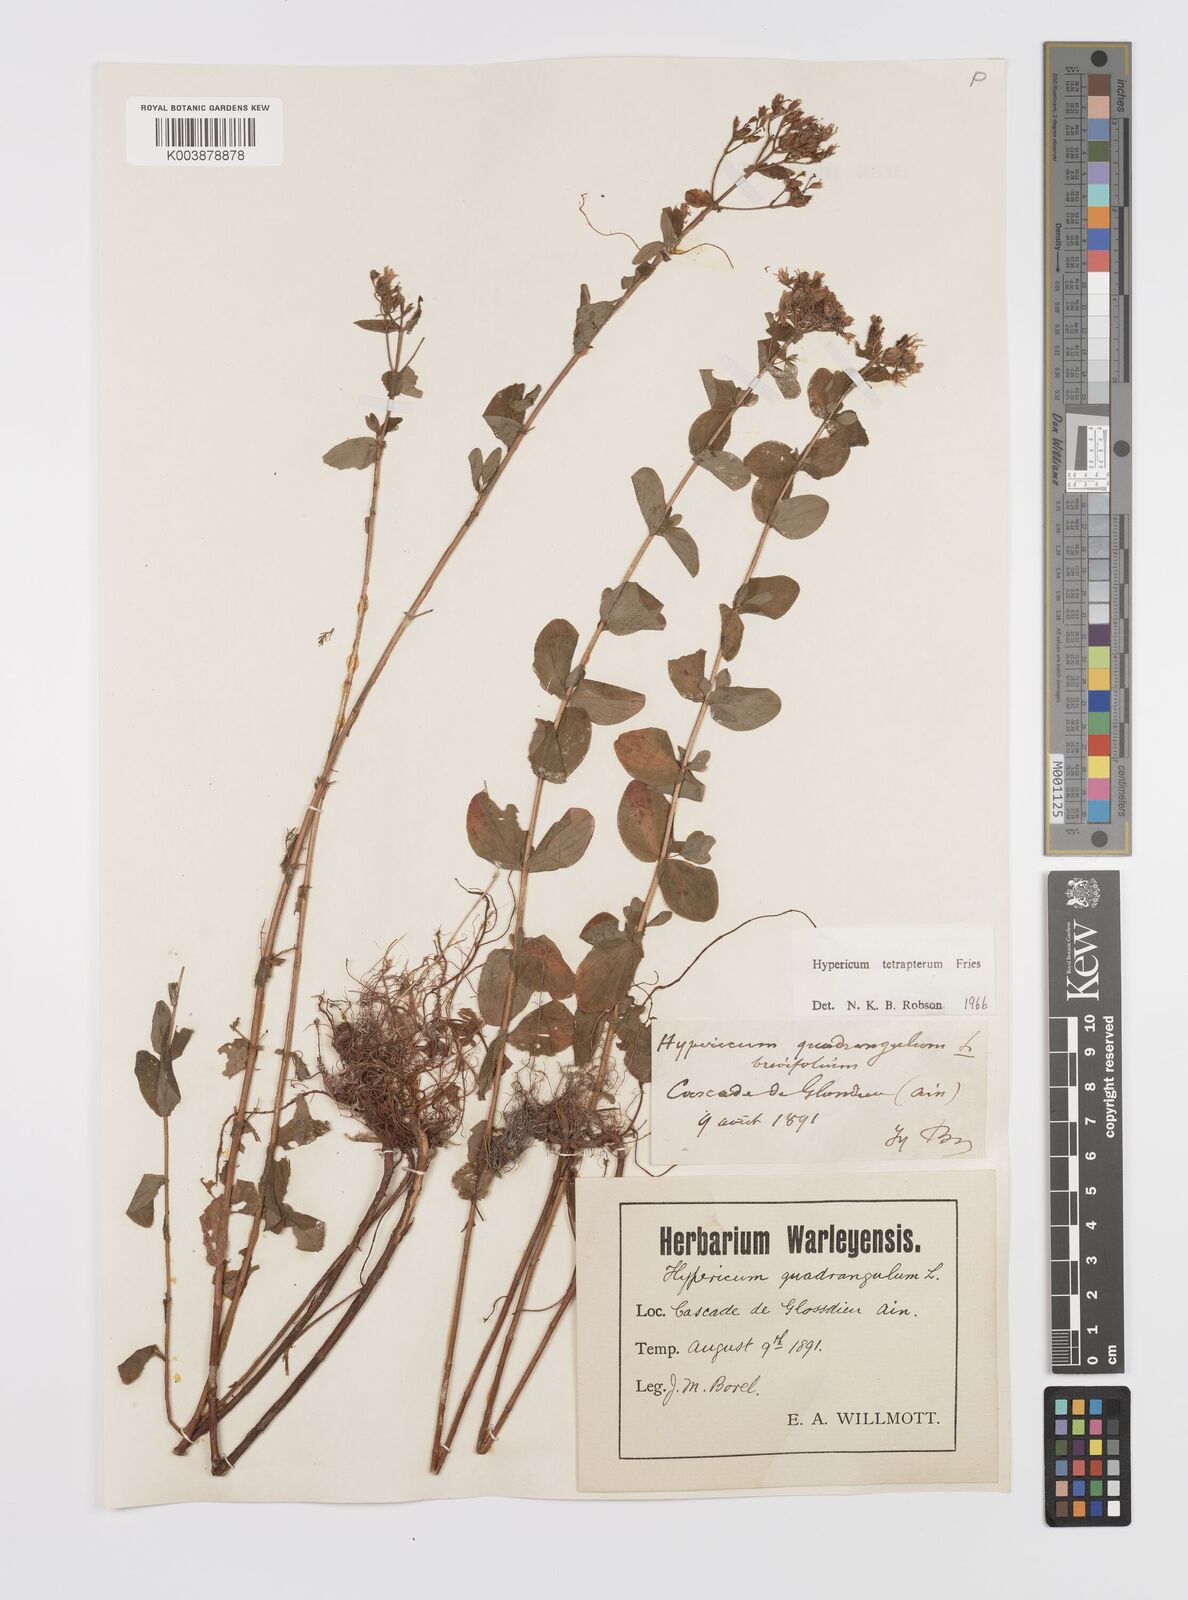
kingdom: Plantae
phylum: Tracheophyta
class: Magnoliopsida
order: Malpighiales
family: Hypericaceae
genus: Hypericum
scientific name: Hypericum tetrapterum
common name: Square-stalked st. john's-wort
